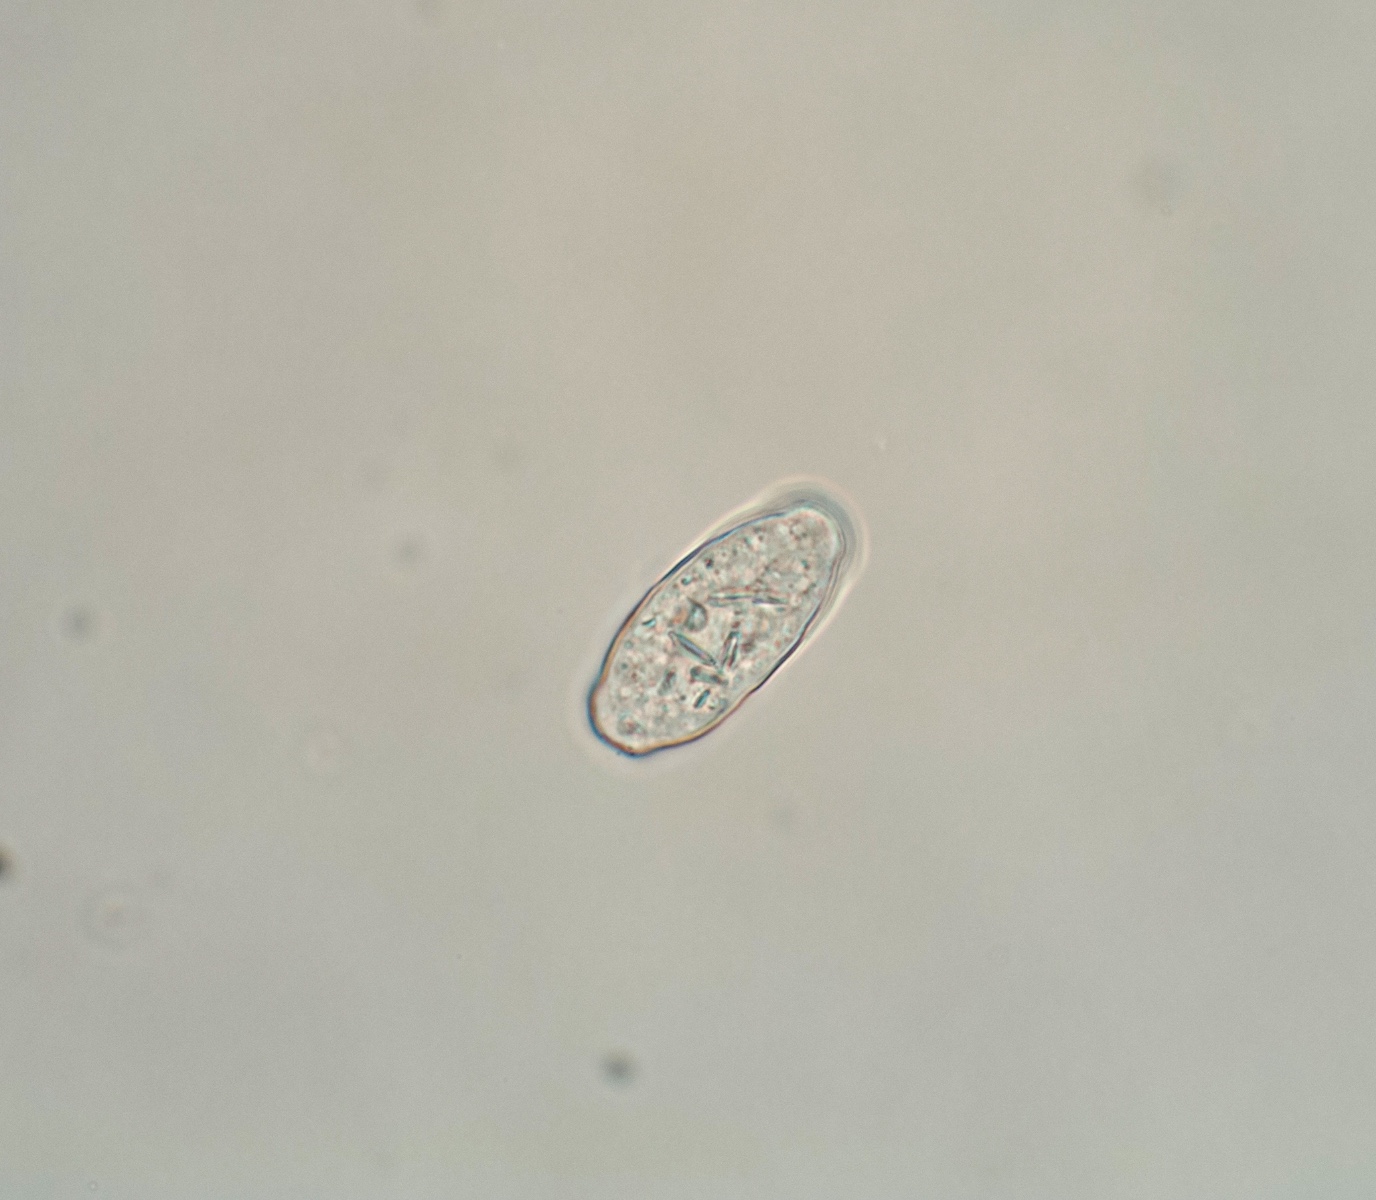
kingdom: Fungi
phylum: Ascomycota
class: Leotiomycetes
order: Helotiales
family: Erysiphaceae
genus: Podosphaera
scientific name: Podosphaera dipsacacearum
